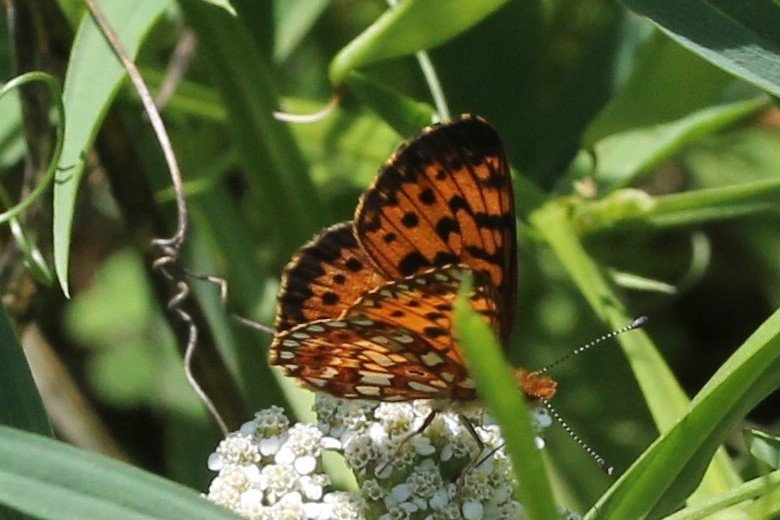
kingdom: Animalia
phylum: Arthropoda
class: Insecta
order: Lepidoptera
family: Nymphalidae
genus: Boloria
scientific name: Boloria selene
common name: Silver-bordered Fritillary
